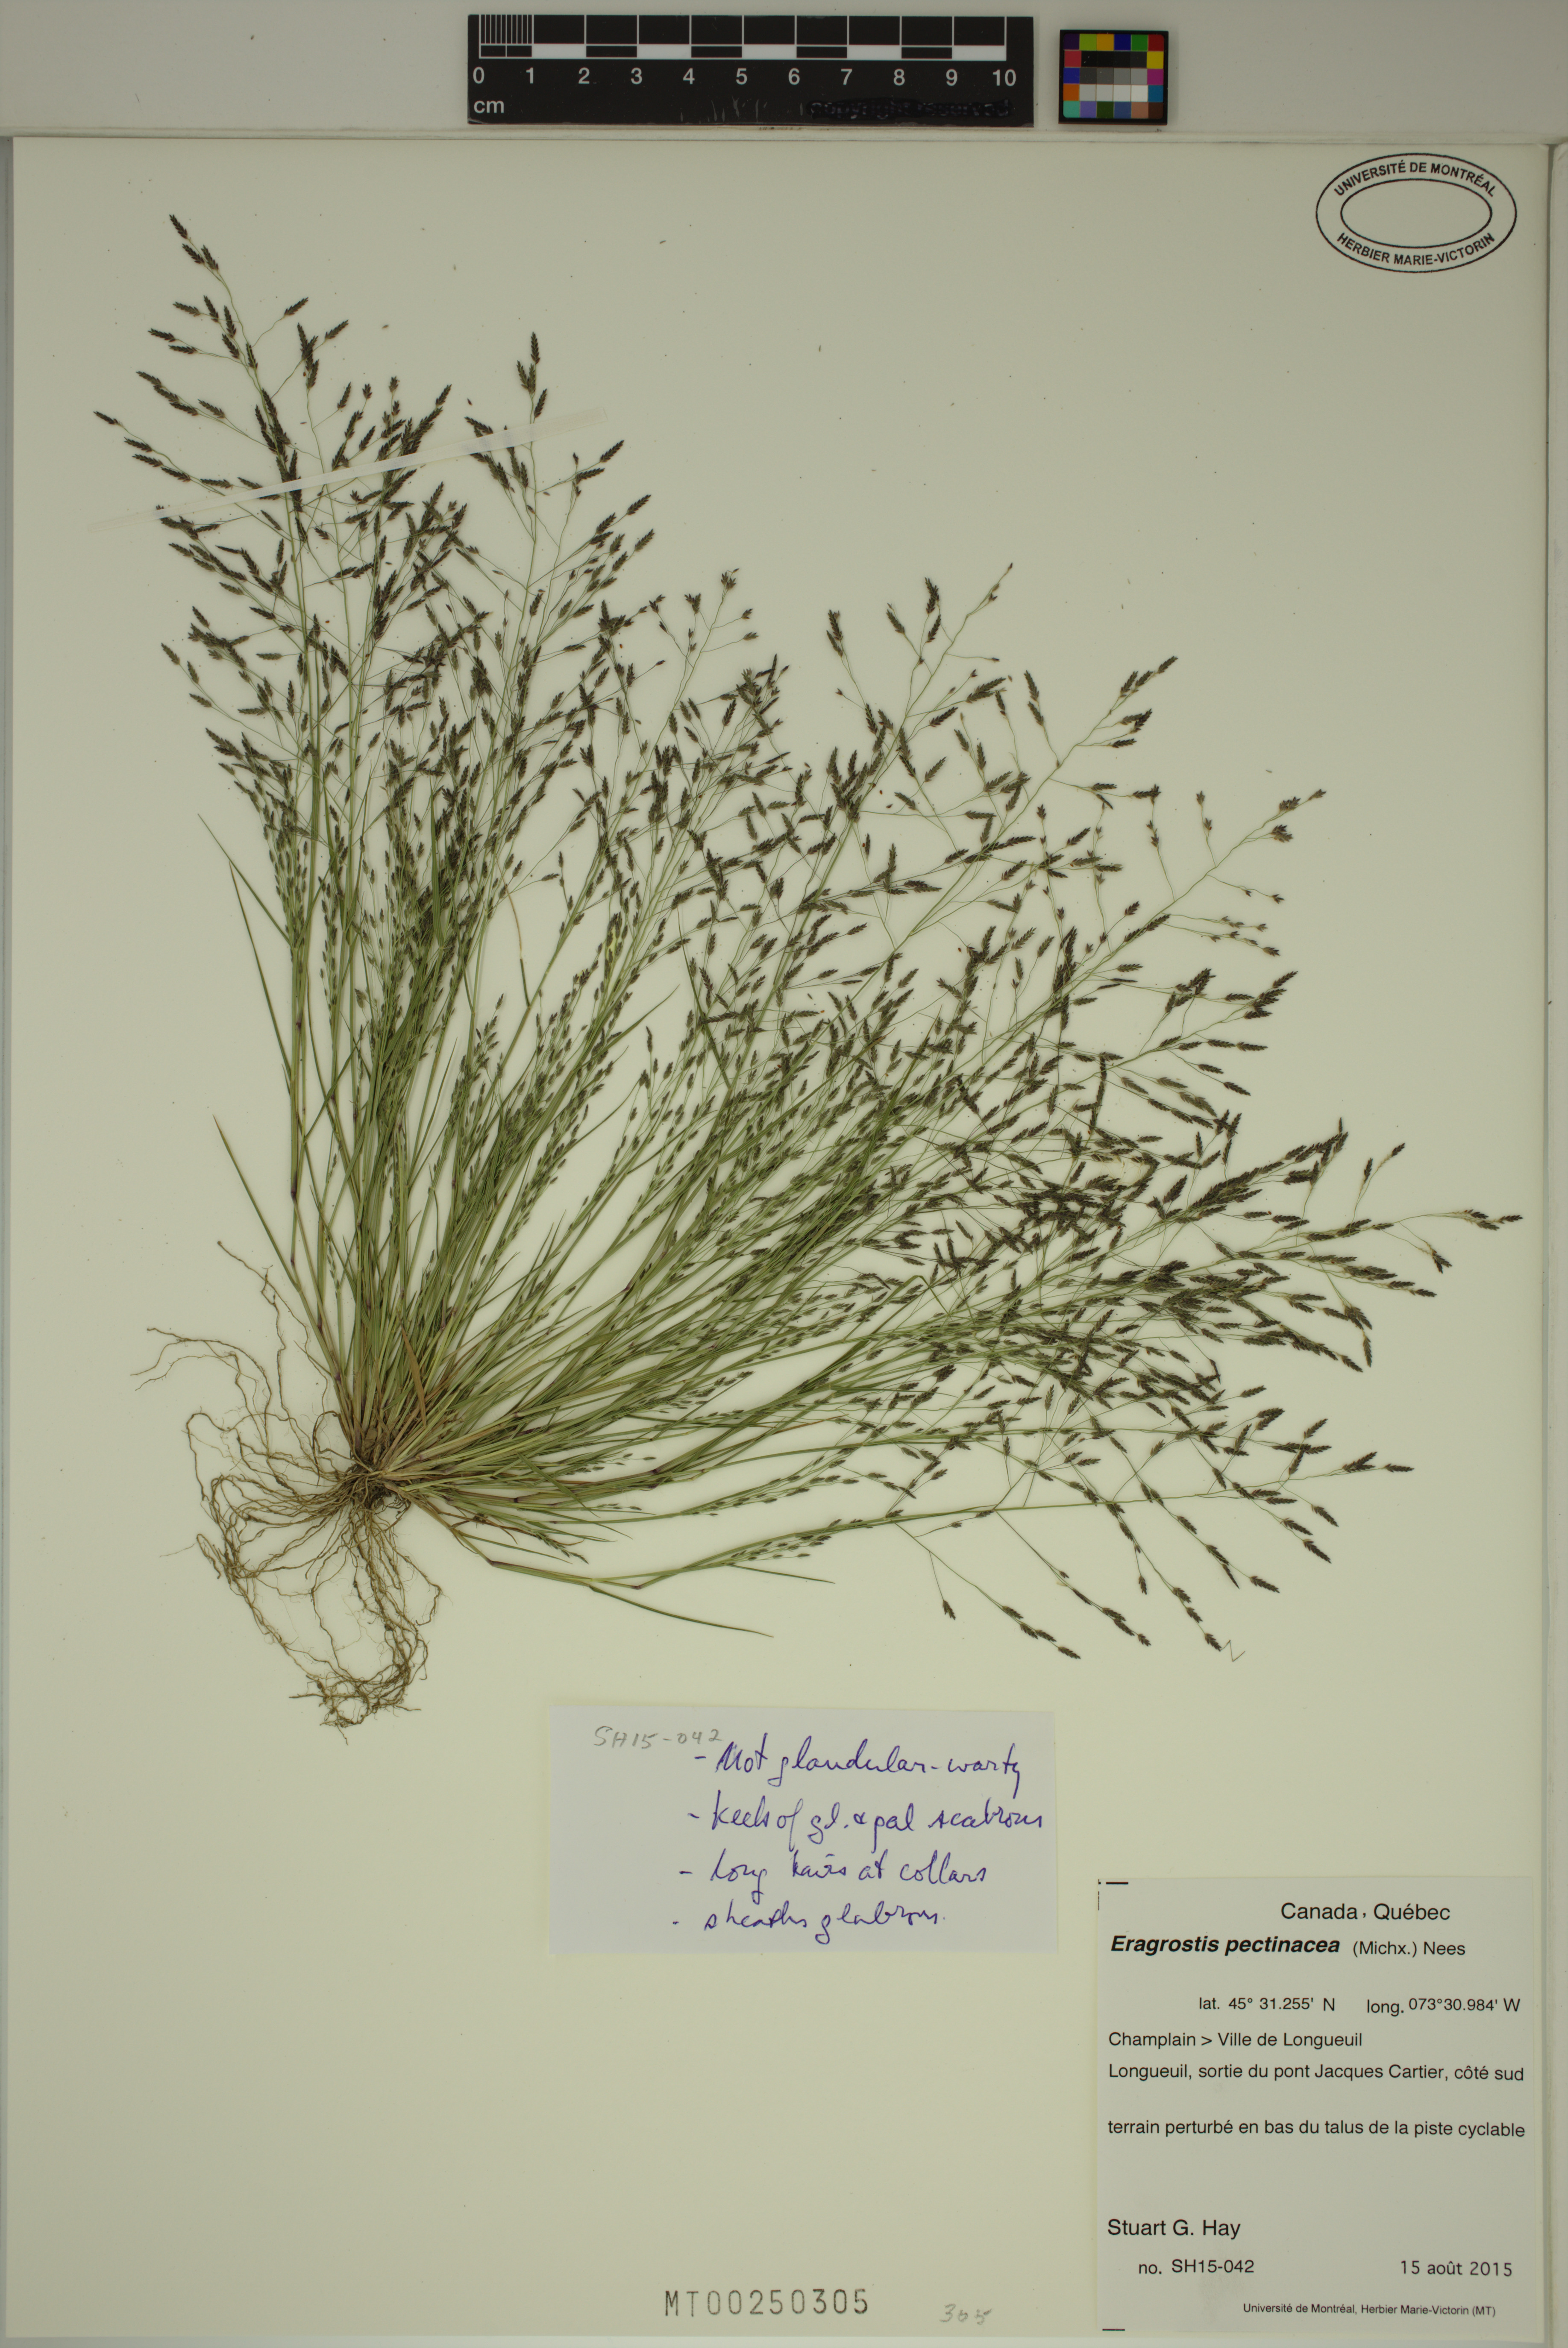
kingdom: Plantae
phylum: Tracheophyta
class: Liliopsida
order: Poales
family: Poaceae
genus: Eragrostis
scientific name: Eragrostis pectinacea
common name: Tufted lovegrass
